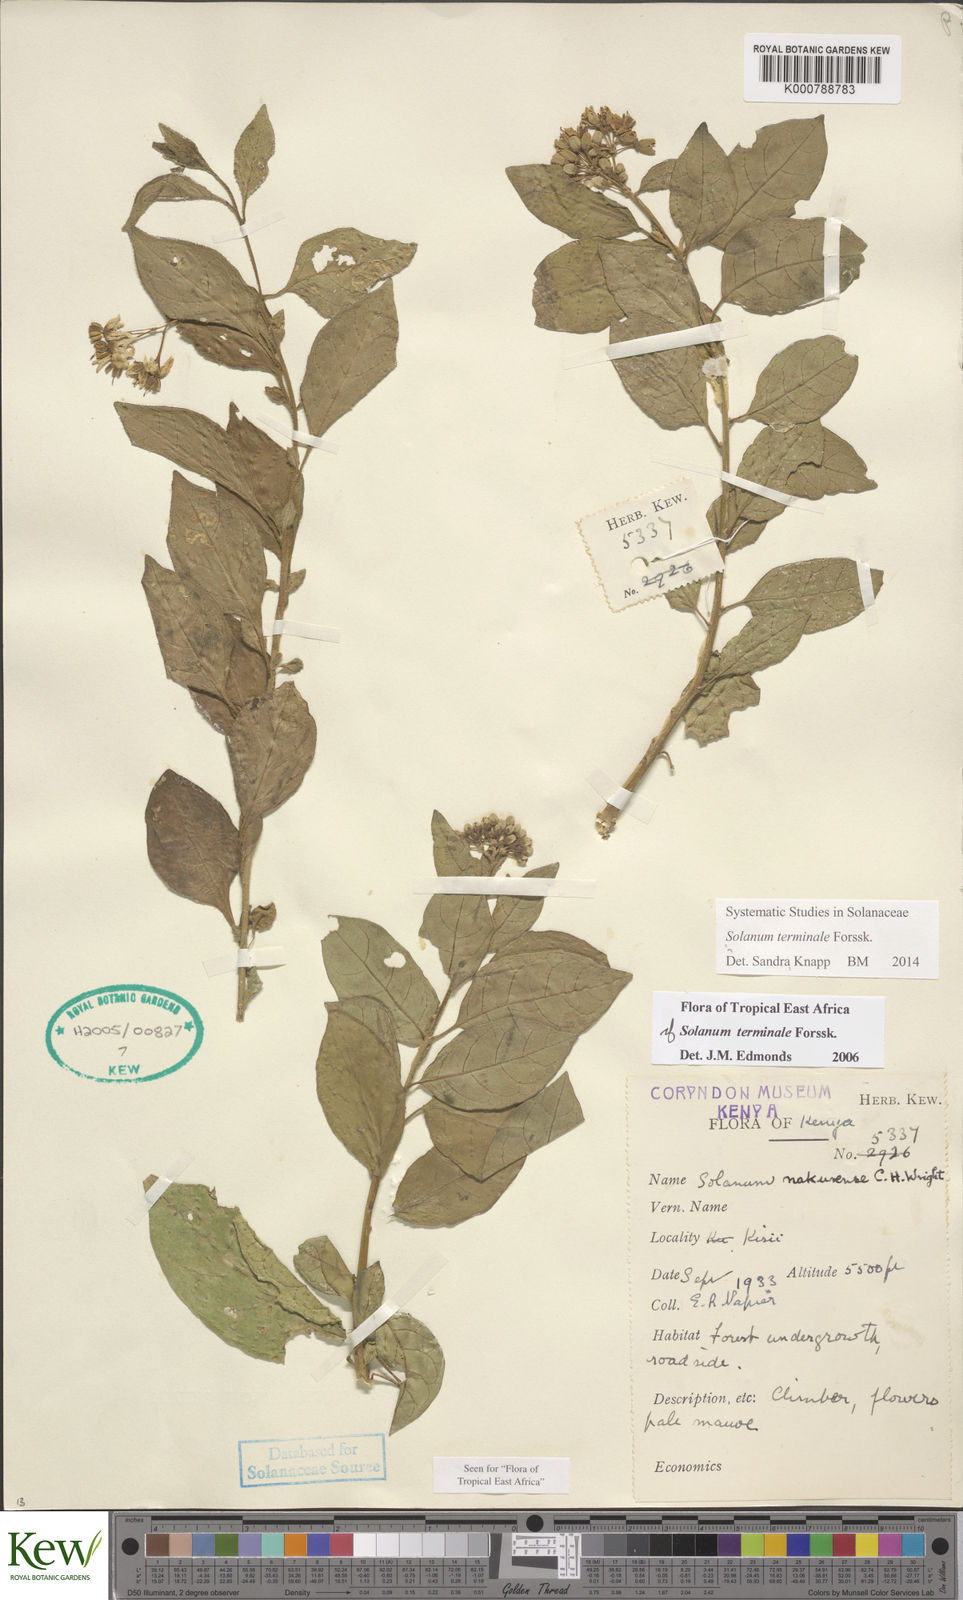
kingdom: Plantae
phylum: Tracheophyta
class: Magnoliopsida
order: Solanales
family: Solanaceae
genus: Solanum
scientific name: Solanum terminale
